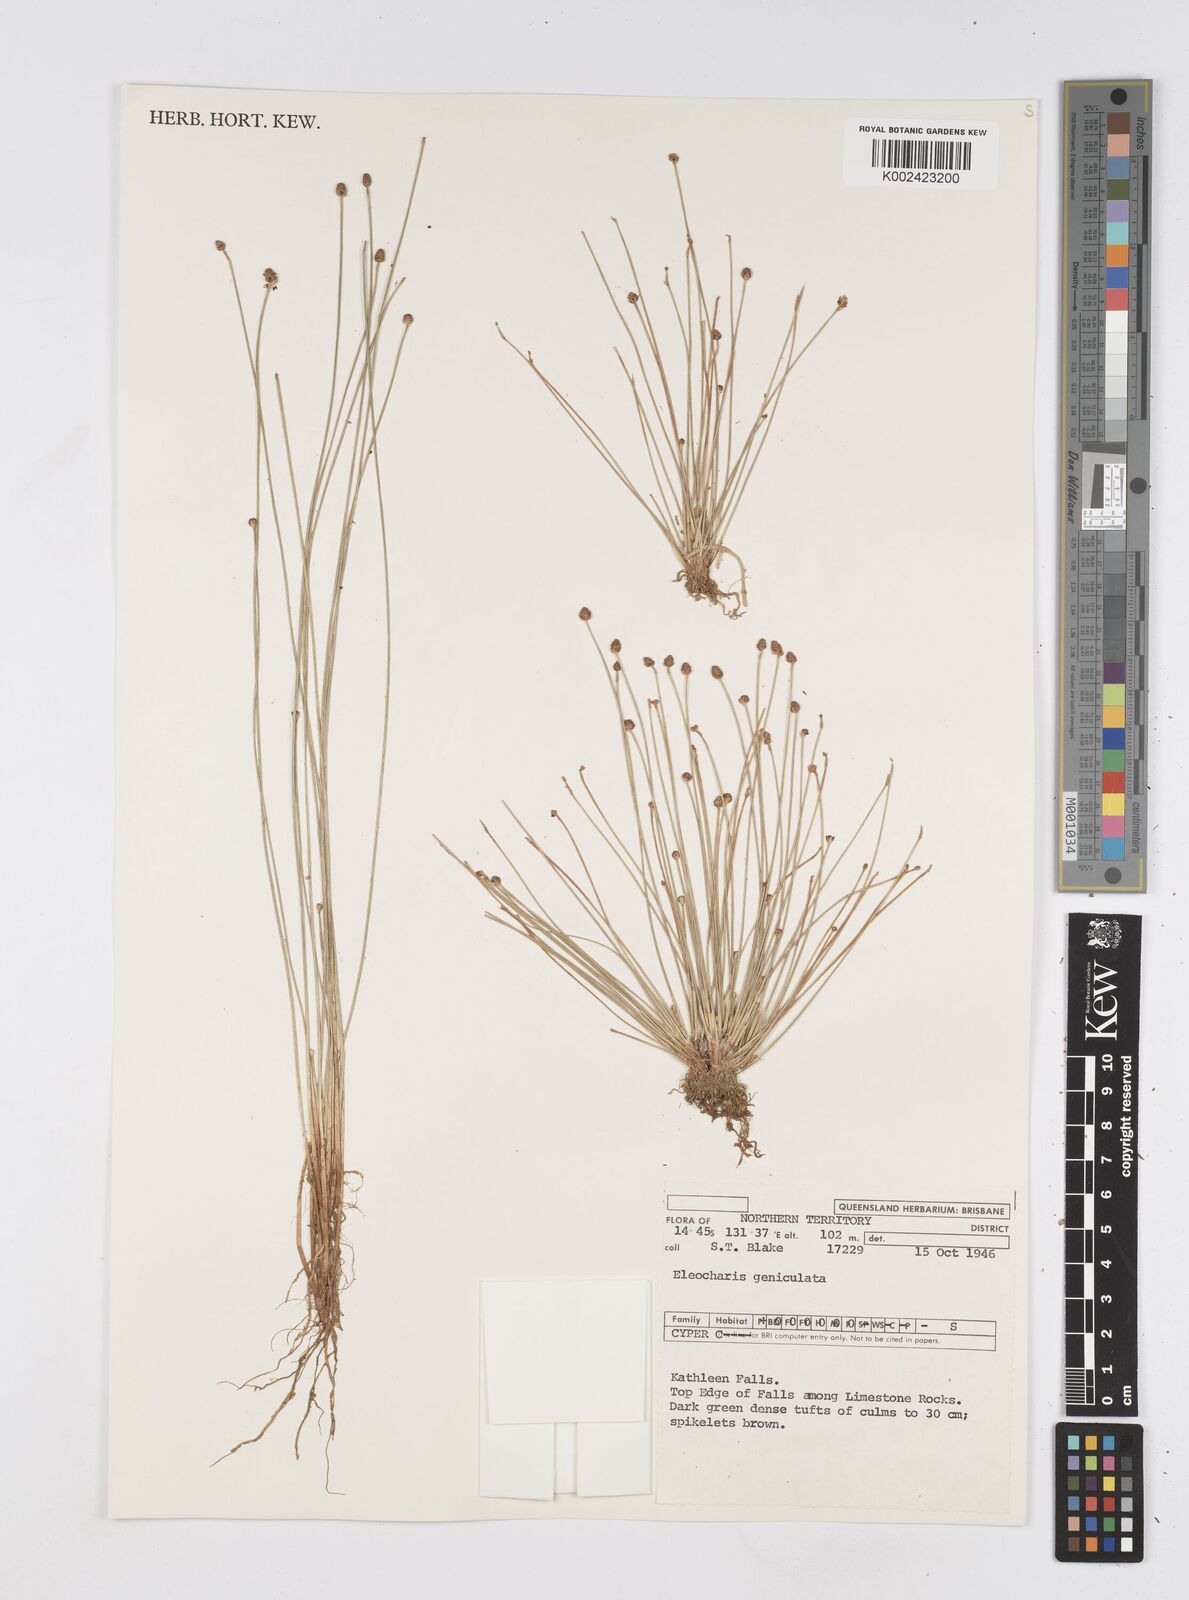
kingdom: Plantae
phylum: Tracheophyta
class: Liliopsida
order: Poales
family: Cyperaceae
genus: Eleocharis
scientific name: Eleocharis geniculata
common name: Canada spikesedge
